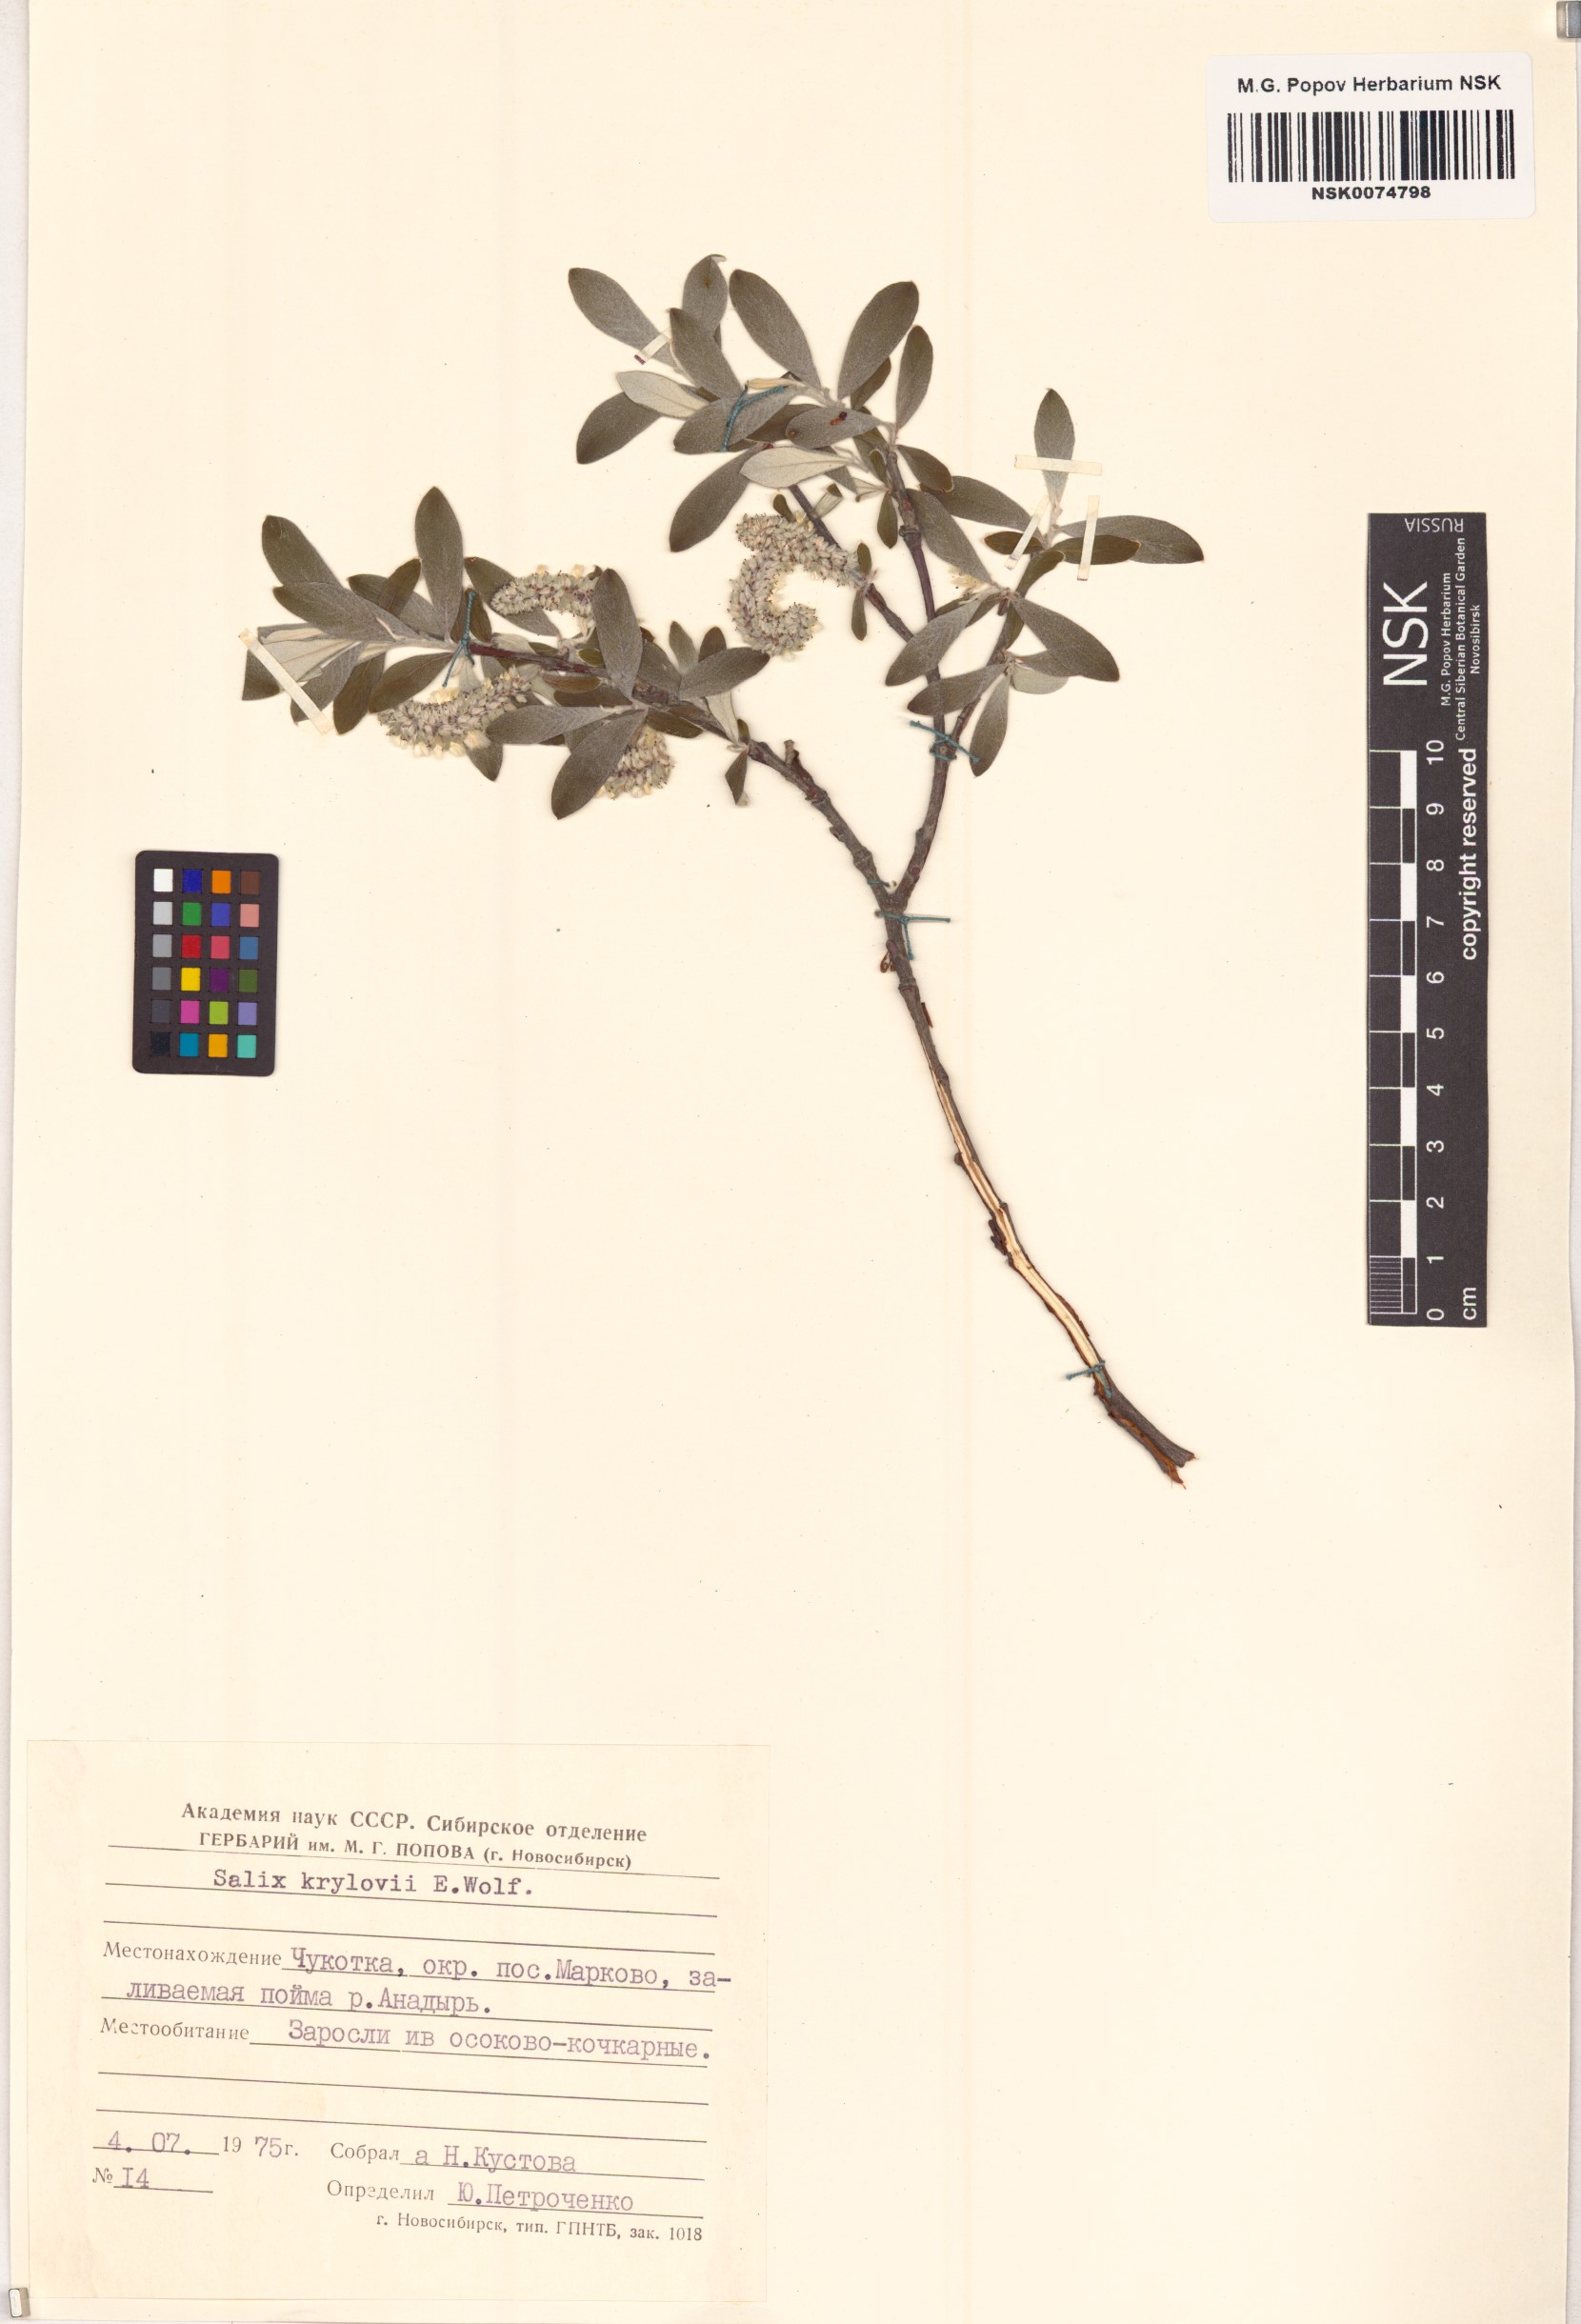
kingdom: Plantae
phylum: Tracheophyta
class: Magnoliopsida
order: Malpighiales
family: Salicaceae
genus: Salix
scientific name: Salix krylovii
